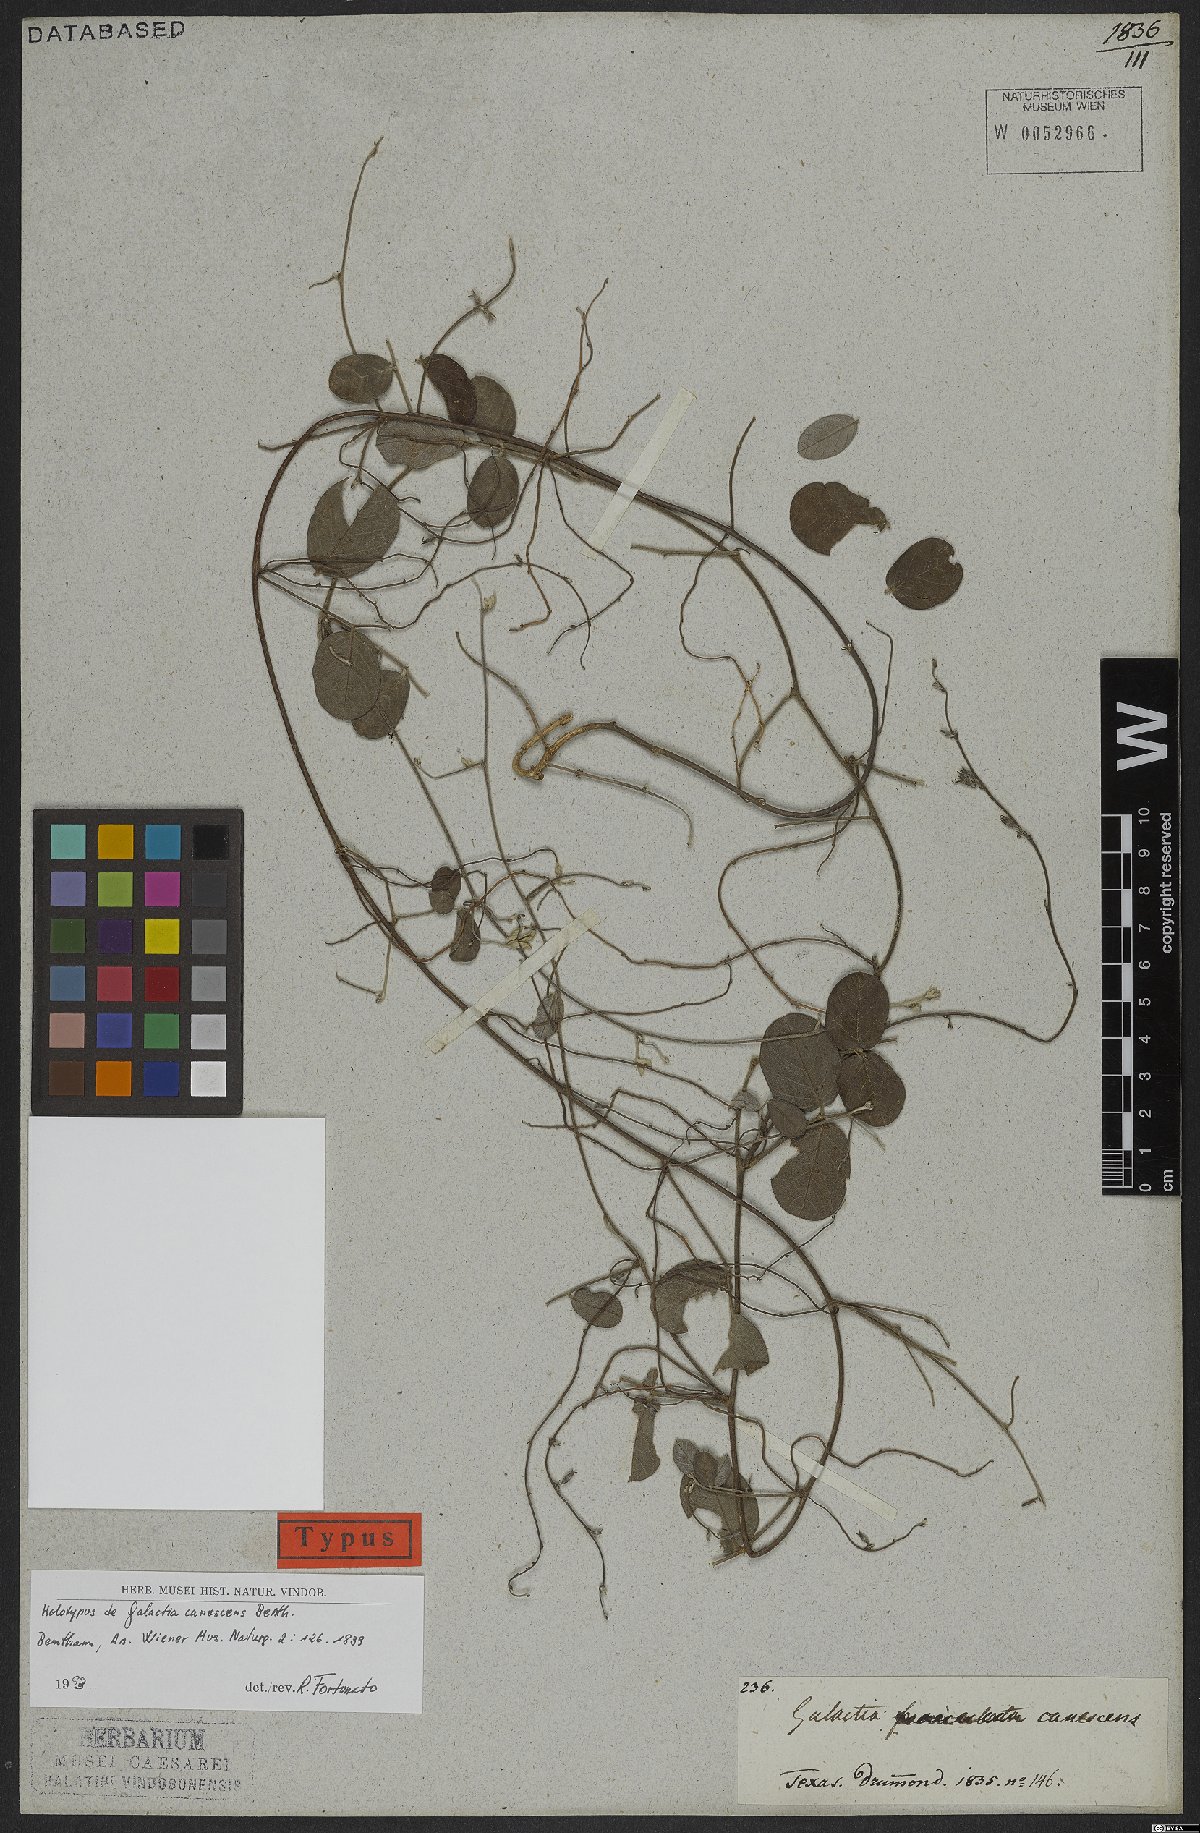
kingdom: Plantae
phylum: Tracheophyta
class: Magnoliopsida
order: Fabales
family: Fabaceae
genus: Galactia
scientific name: Galactia canescens
